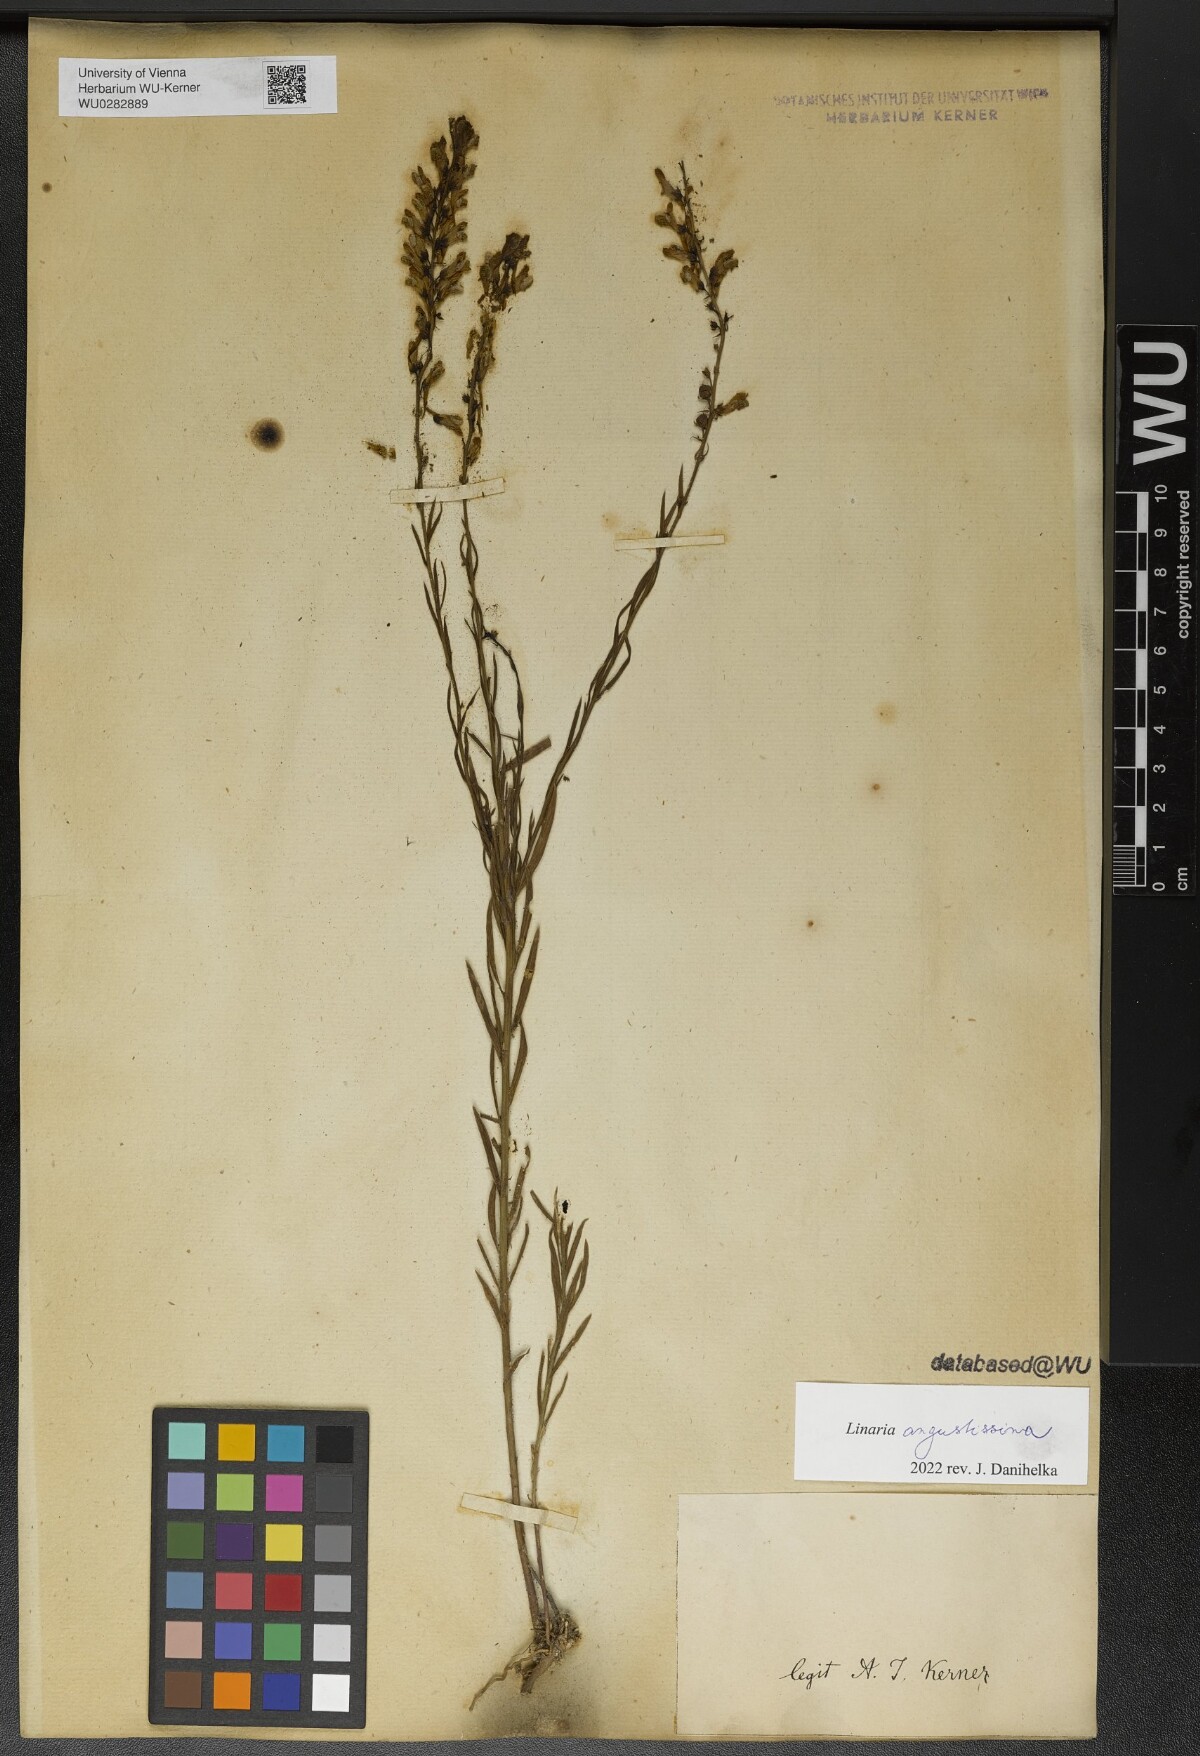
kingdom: Plantae
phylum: Tracheophyta
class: Magnoliopsida
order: Lamiales
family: Plantaginaceae
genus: Linaria
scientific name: Linaria angustissima
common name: Italian toadflax
